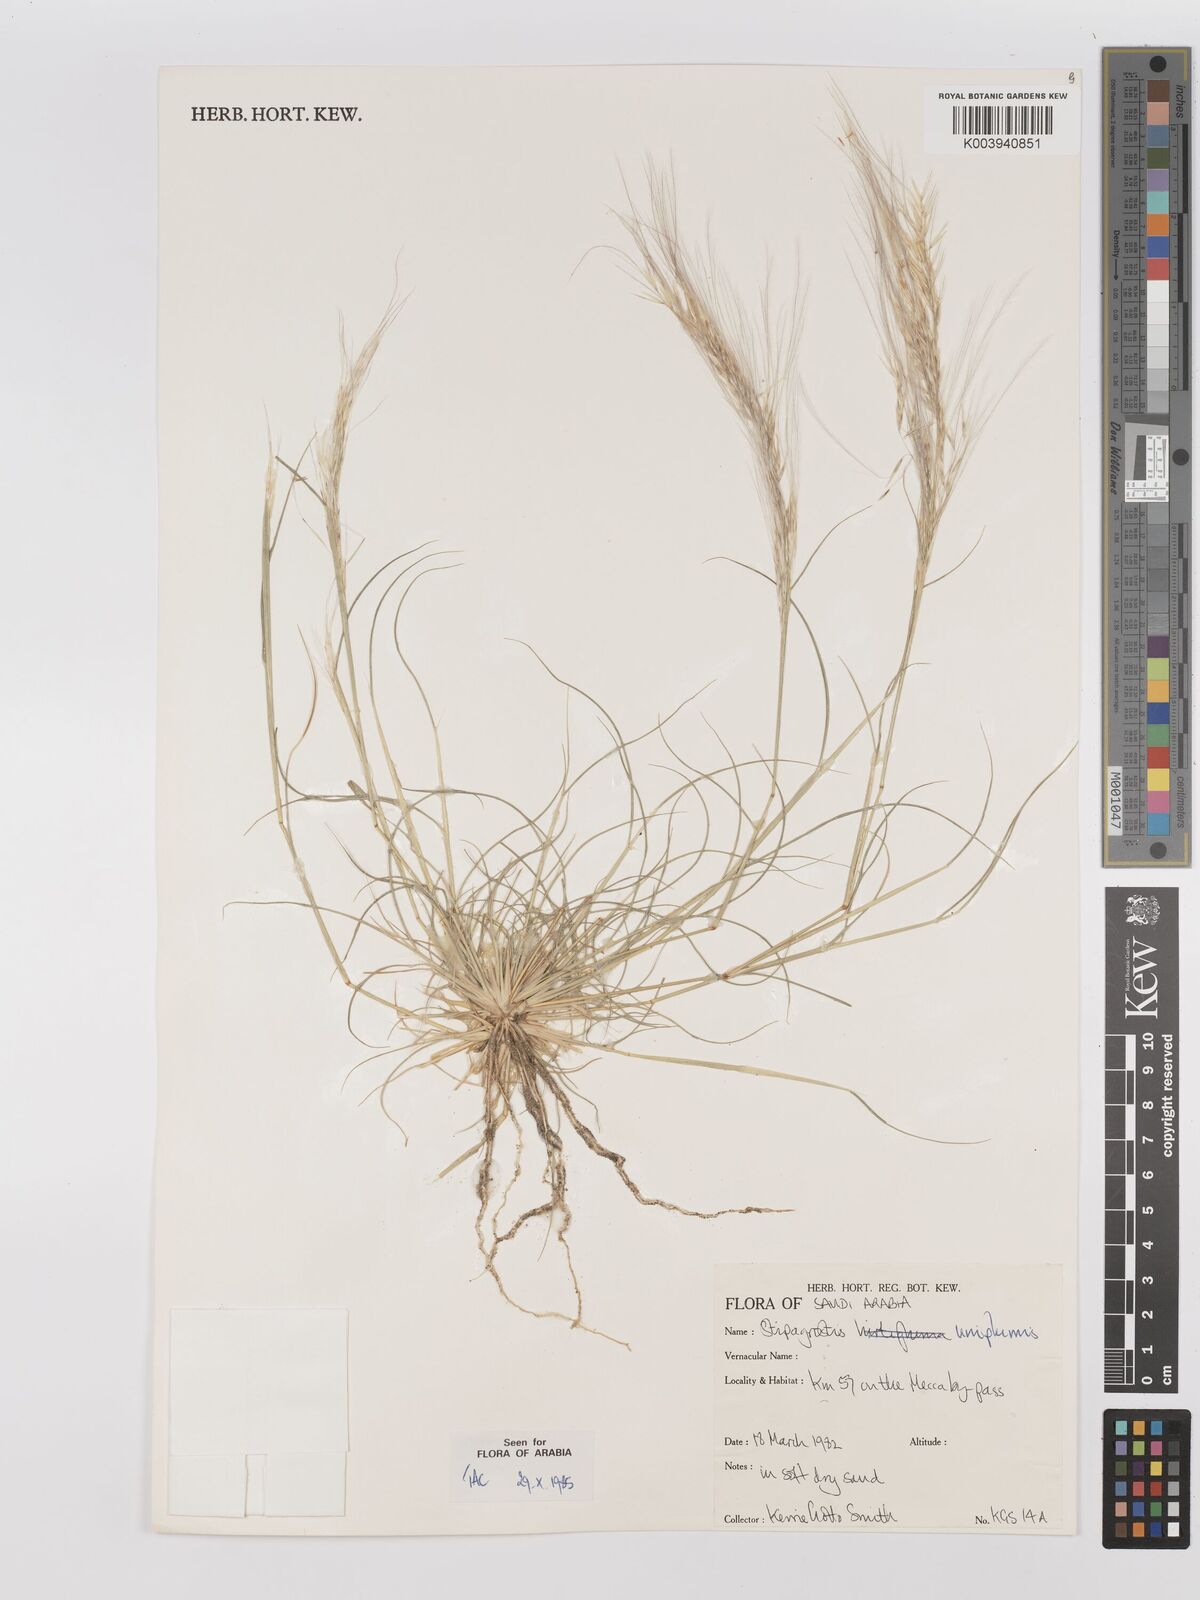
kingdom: Plantae
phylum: Tracheophyta
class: Liliopsida
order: Poales
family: Poaceae
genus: Stipagrostis
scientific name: Stipagrostis uniplumis
